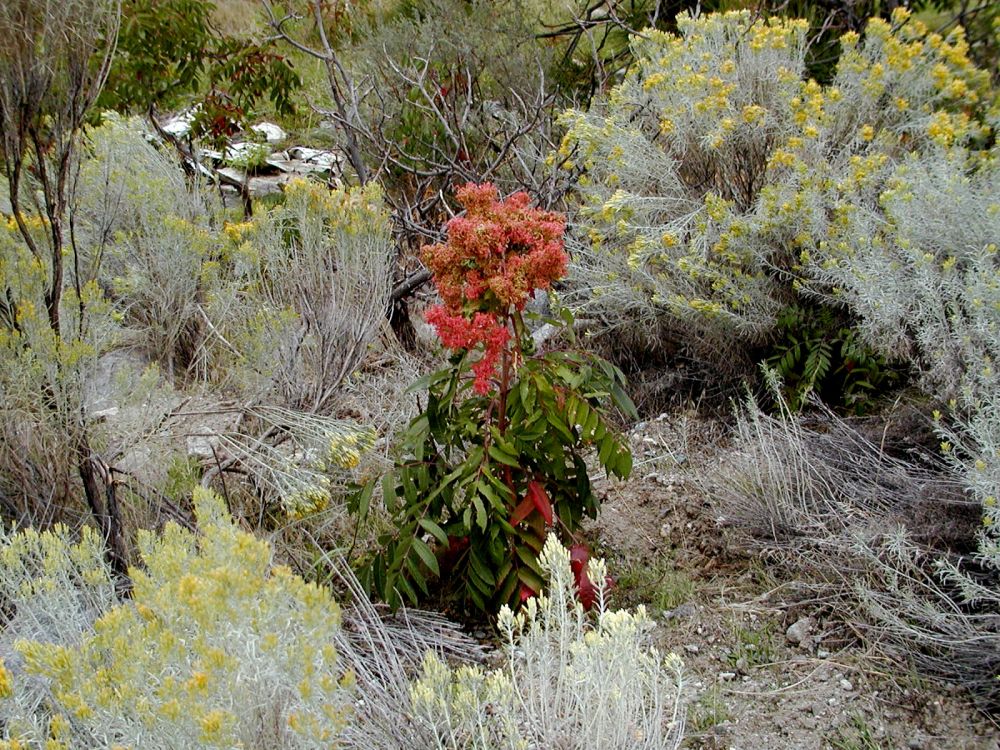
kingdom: Plantae
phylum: Tracheophyta
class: Magnoliopsida
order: Sapindales
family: Anacardiaceae
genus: Rhus
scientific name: Rhus glabra
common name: Scarlet sumac
